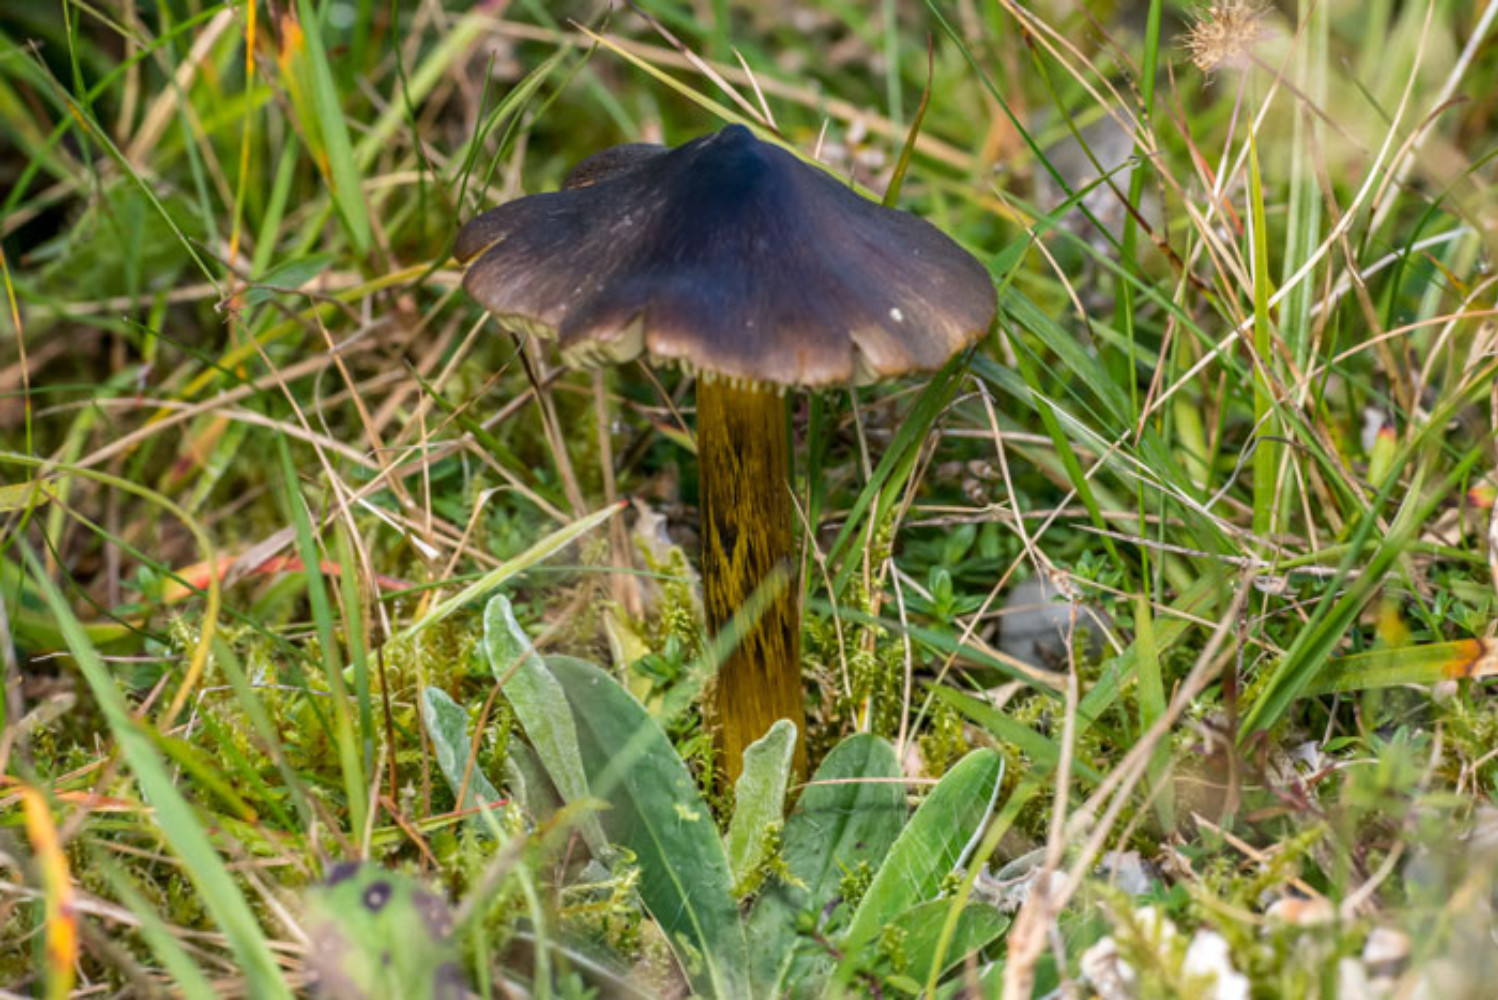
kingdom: Fungi
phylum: Basidiomycota
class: Agaricomycetes
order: Agaricales
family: Hygrophoraceae
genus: Hygrocybe
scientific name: Hygrocybe conica
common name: kegle-vokshat
